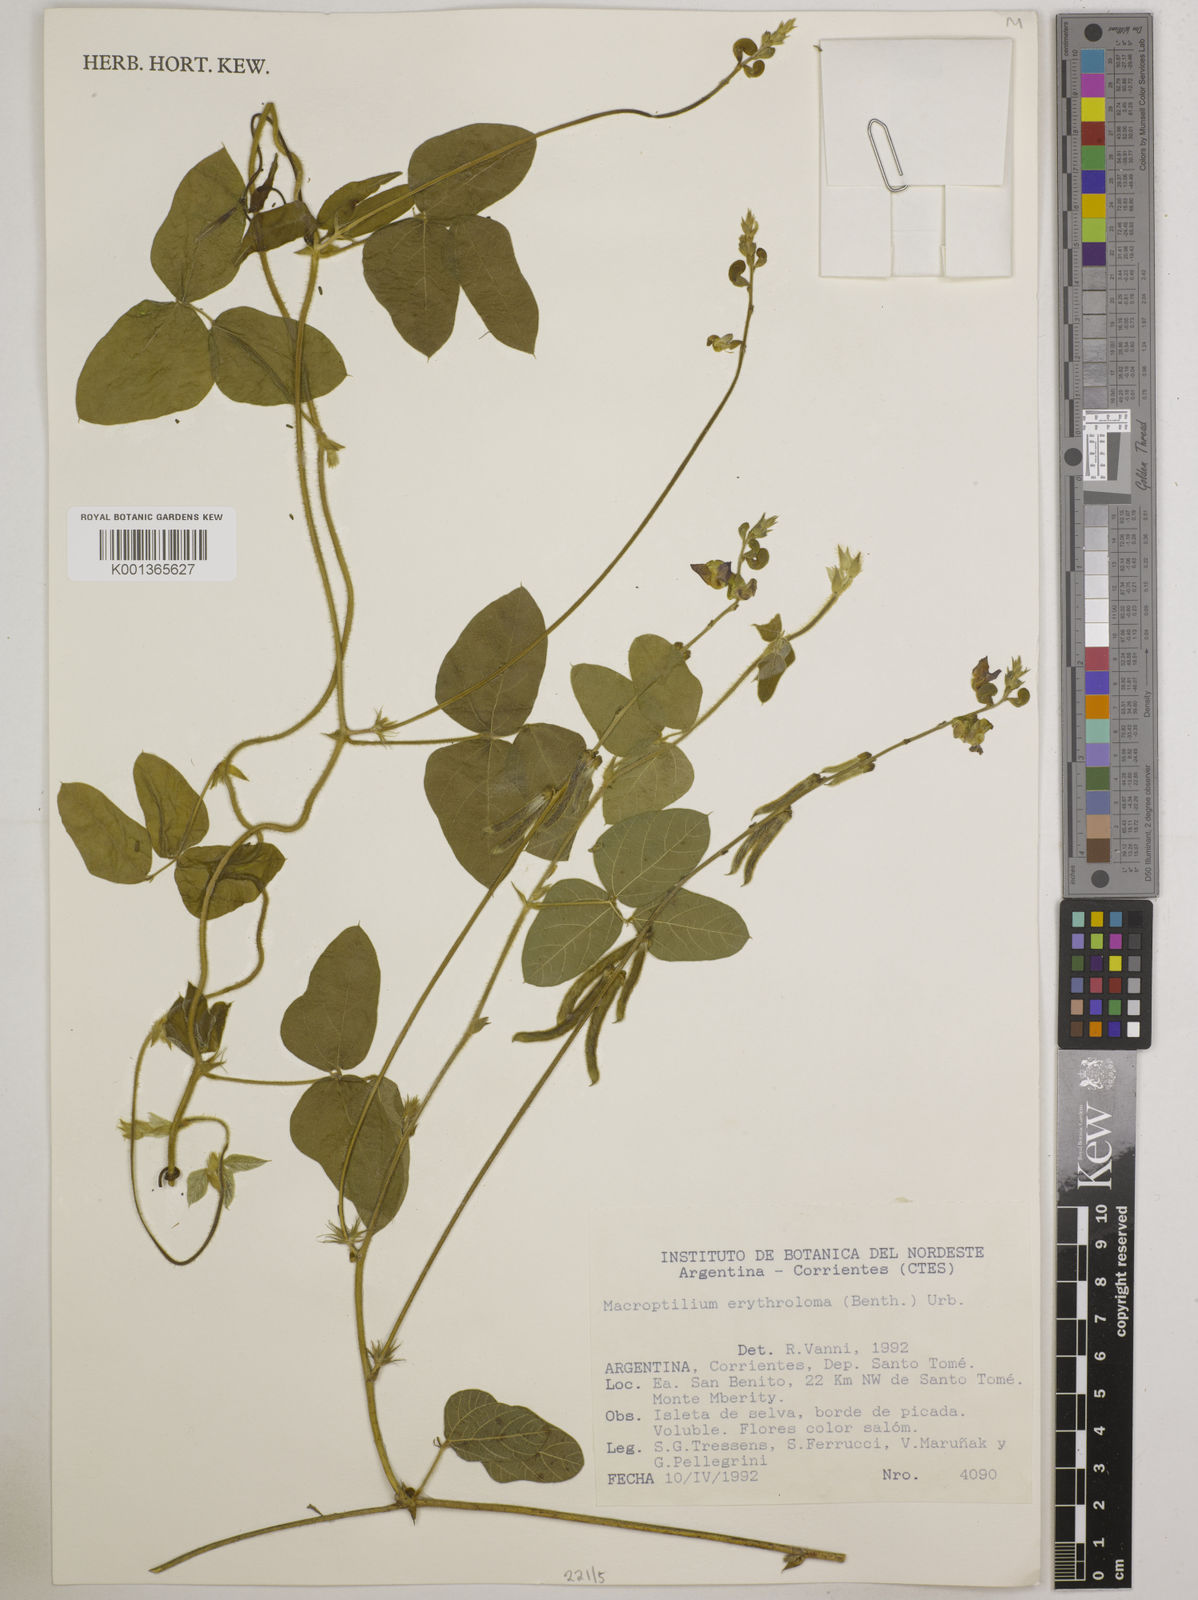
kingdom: Plantae
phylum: Tracheophyta
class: Magnoliopsida
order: Fabales
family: Fabaceae
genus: Macroptilium
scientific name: Macroptilium erythroloma
